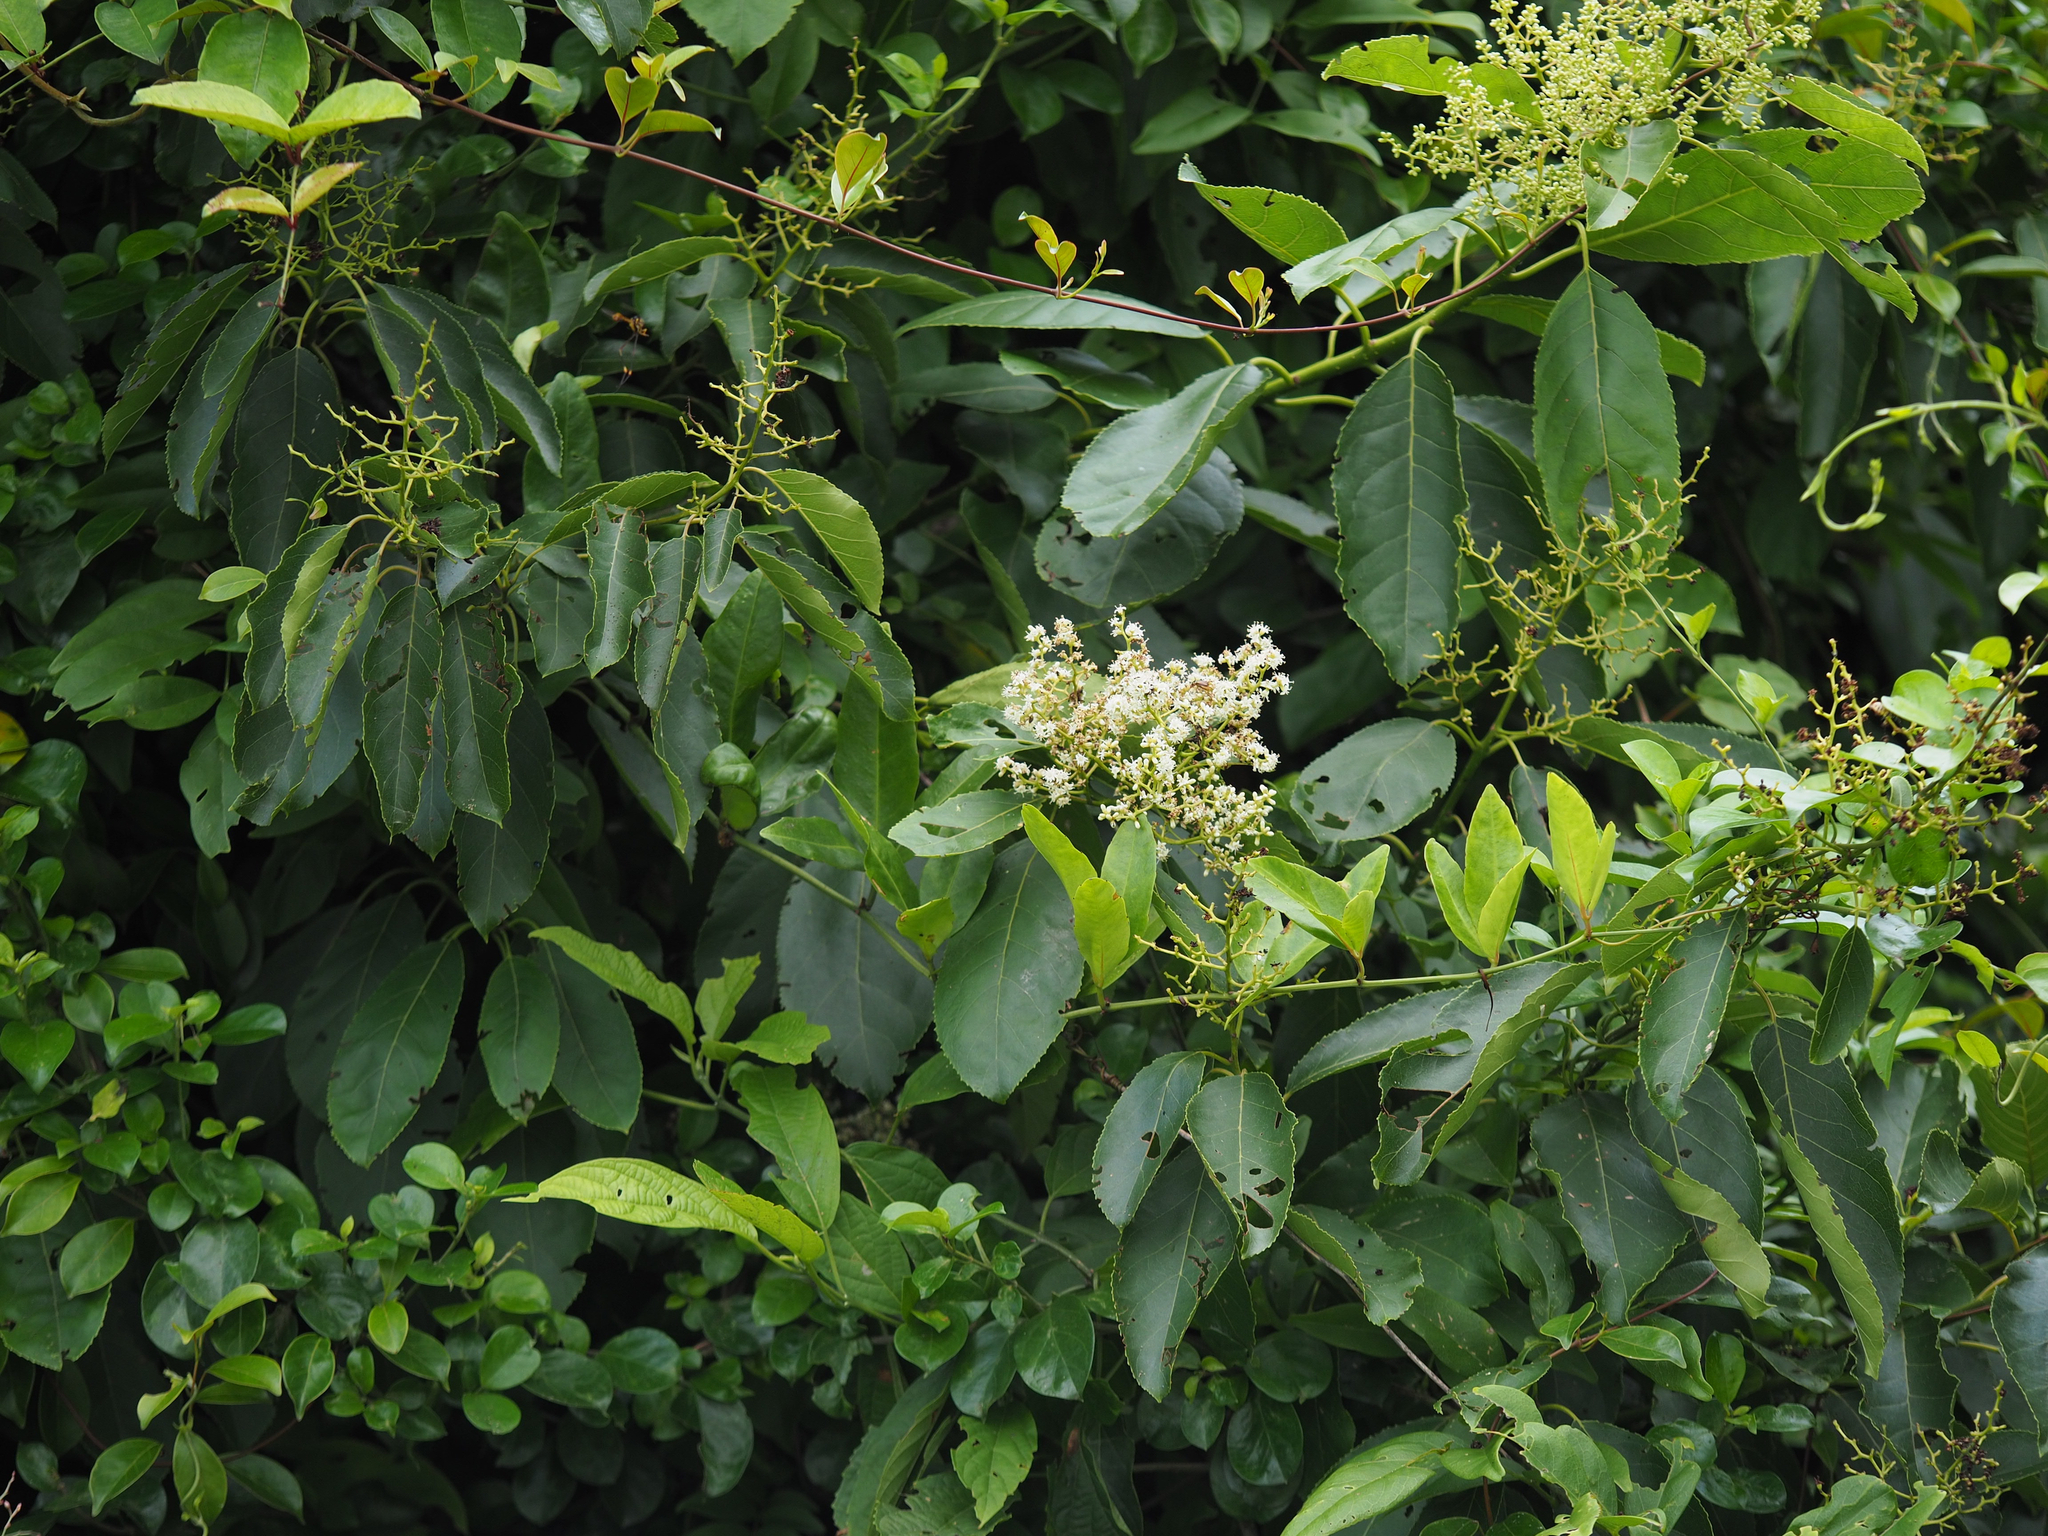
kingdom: Plantae
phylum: Tracheophyta
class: Magnoliopsida
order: Boraginales
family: Ehretiaceae
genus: Ehretia
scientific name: Ehretia acuminata
